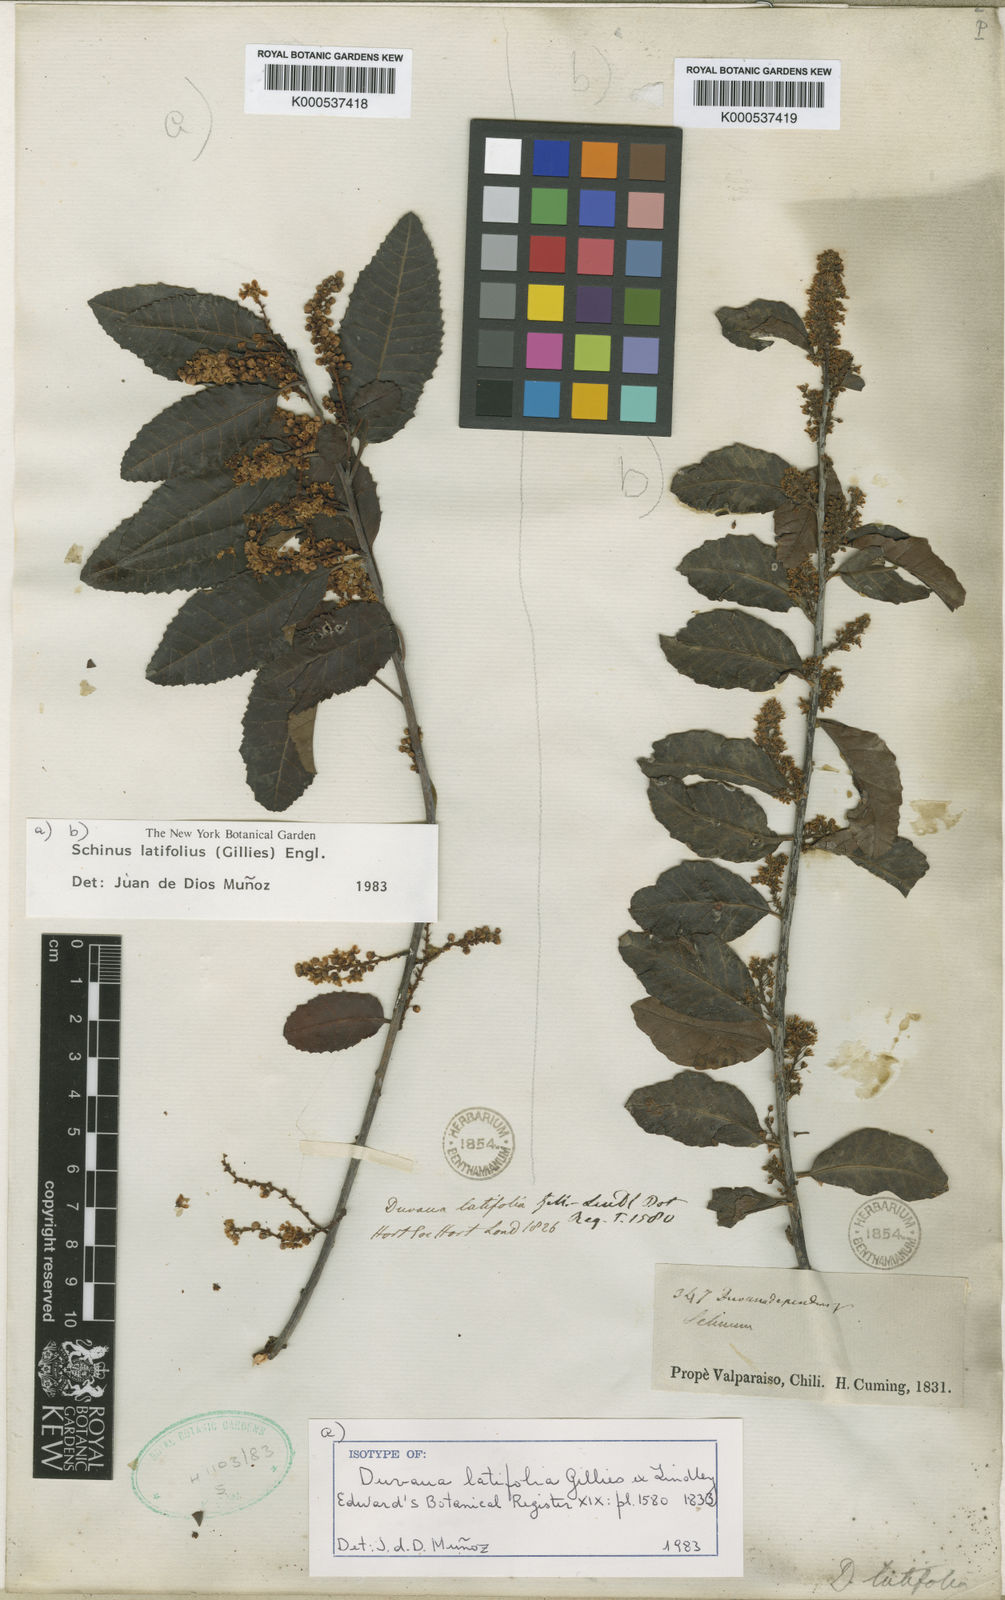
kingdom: Plantae
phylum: Tracheophyta
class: Magnoliopsida
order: Sapindales
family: Anacardiaceae
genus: Schinus
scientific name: Schinus latifolia
